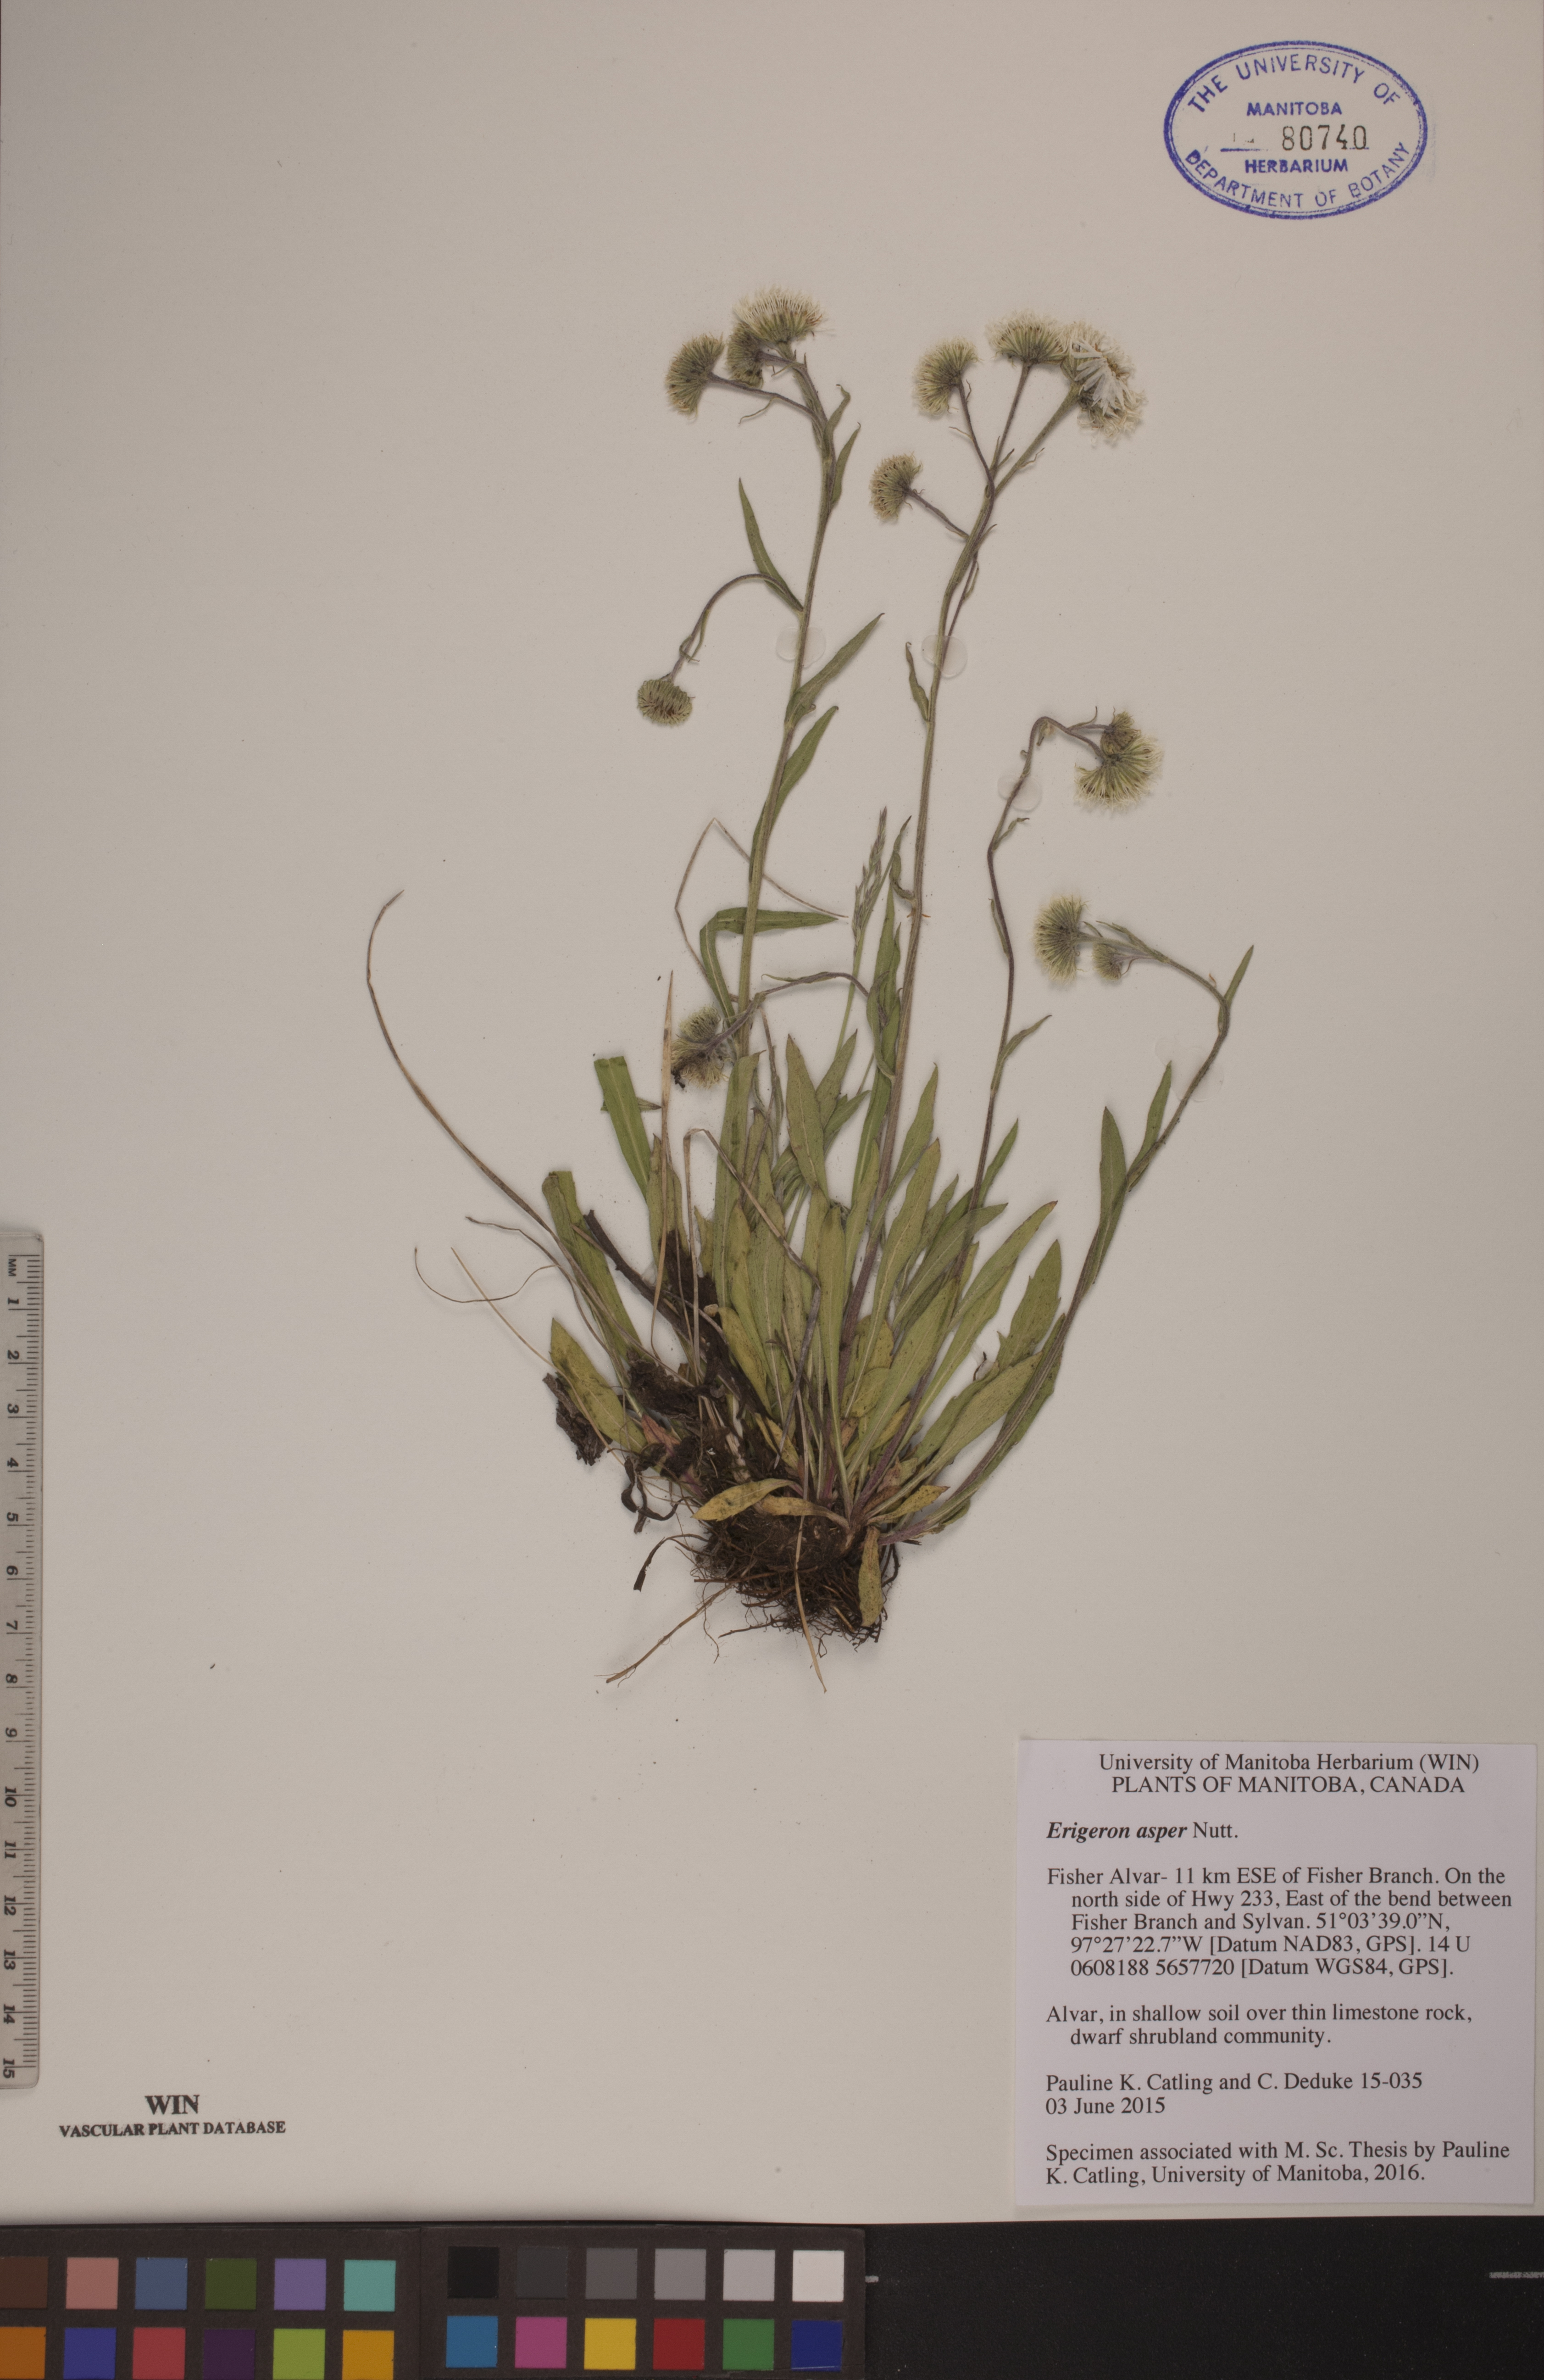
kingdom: Plantae
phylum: Tracheophyta
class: Magnoliopsida
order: Asterales
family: Asteraceae
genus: Erigeron
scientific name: Erigeron glabellus
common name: Smooth fleabane
